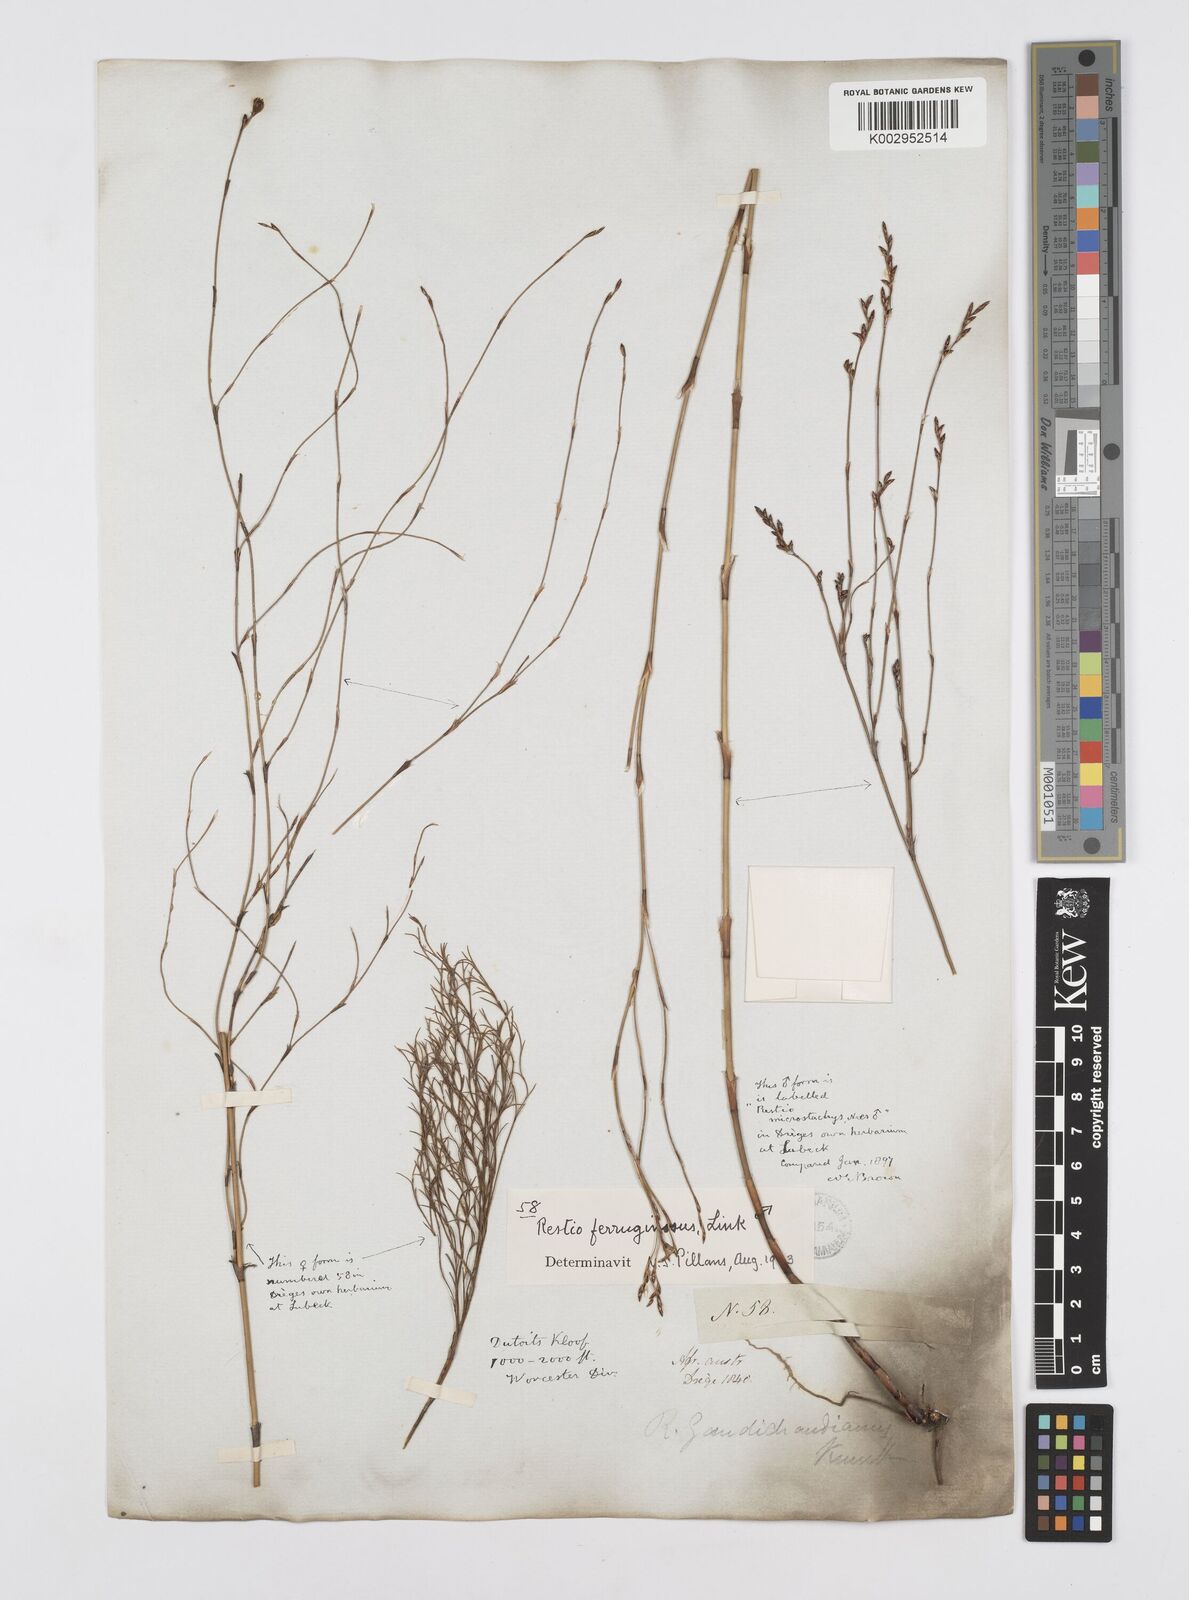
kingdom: Plantae
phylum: Tracheophyta
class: Liliopsida
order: Poales
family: Restionaceae
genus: Restio
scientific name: Restio gaudichaudianus
